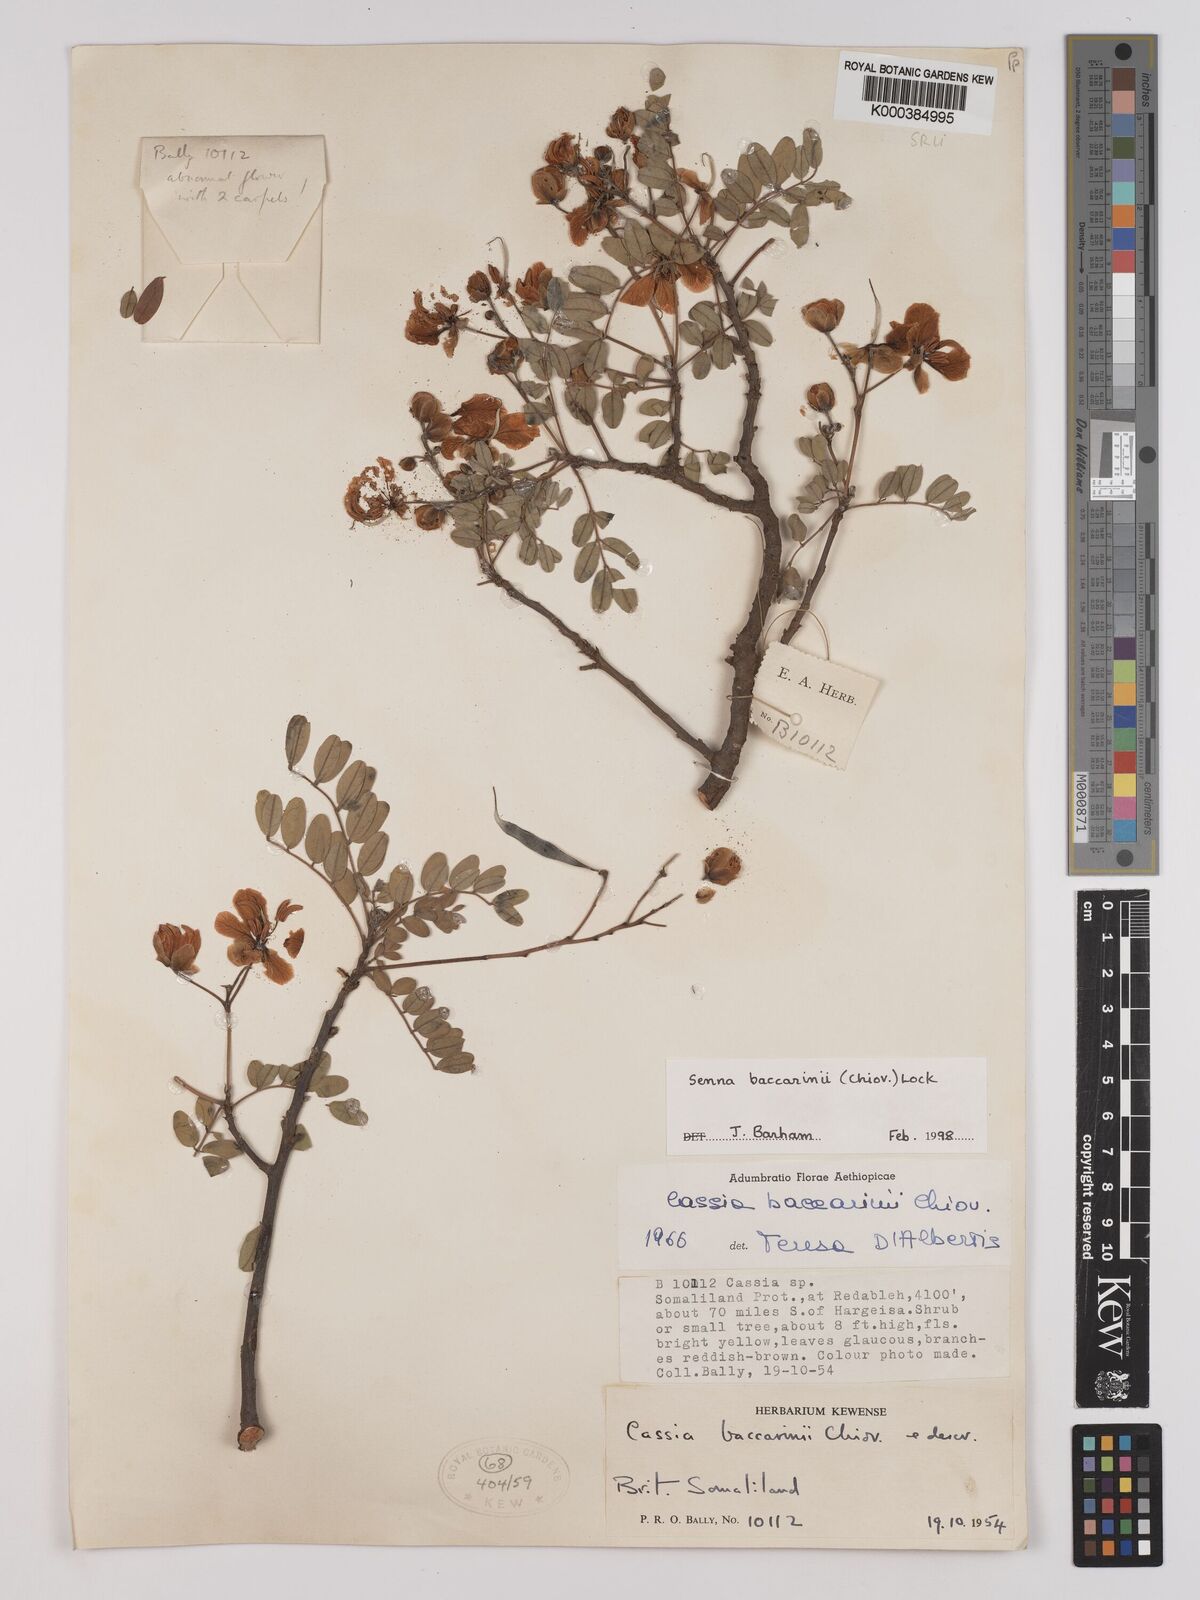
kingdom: Plantae
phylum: Tracheophyta
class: Magnoliopsida
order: Fabales
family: Fabaceae
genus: Senna
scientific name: Senna baccarinii
